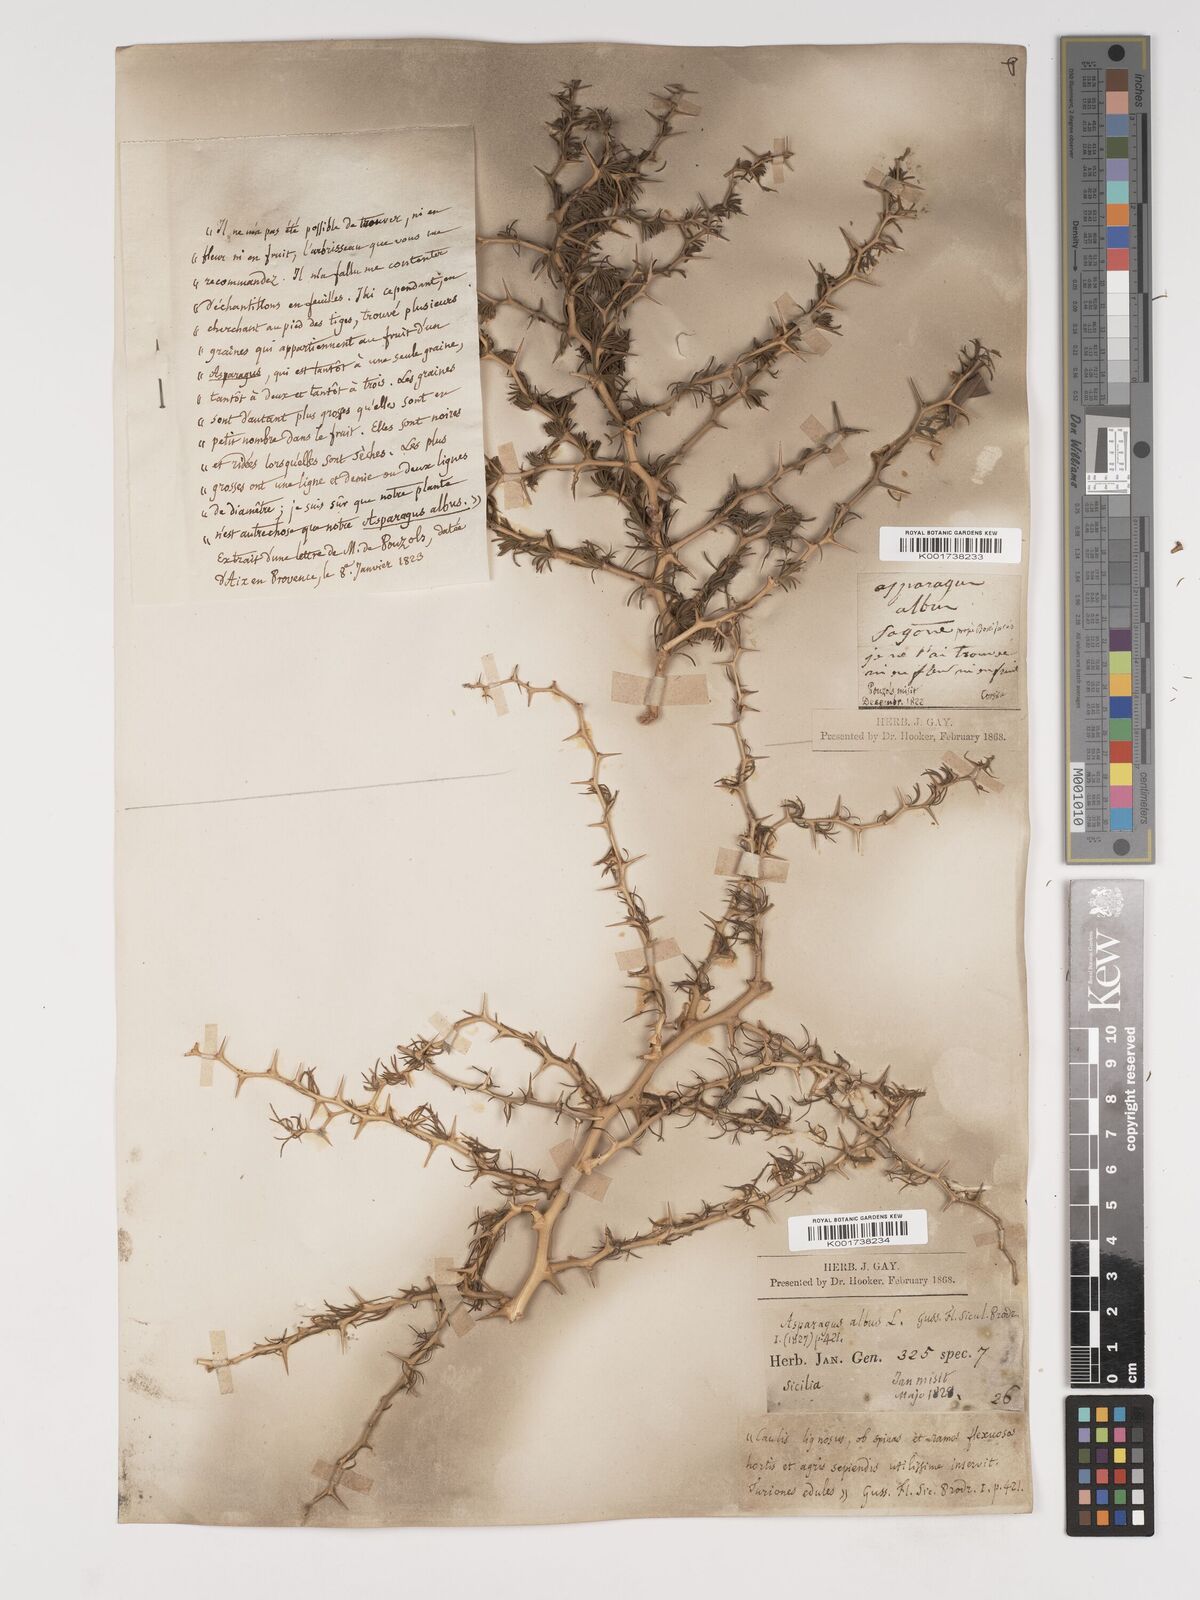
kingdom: Plantae
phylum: Tracheophyta
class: Liliopsida
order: Asparagales
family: Asparagaceae
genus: Asparagus
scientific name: Asparagus albus
